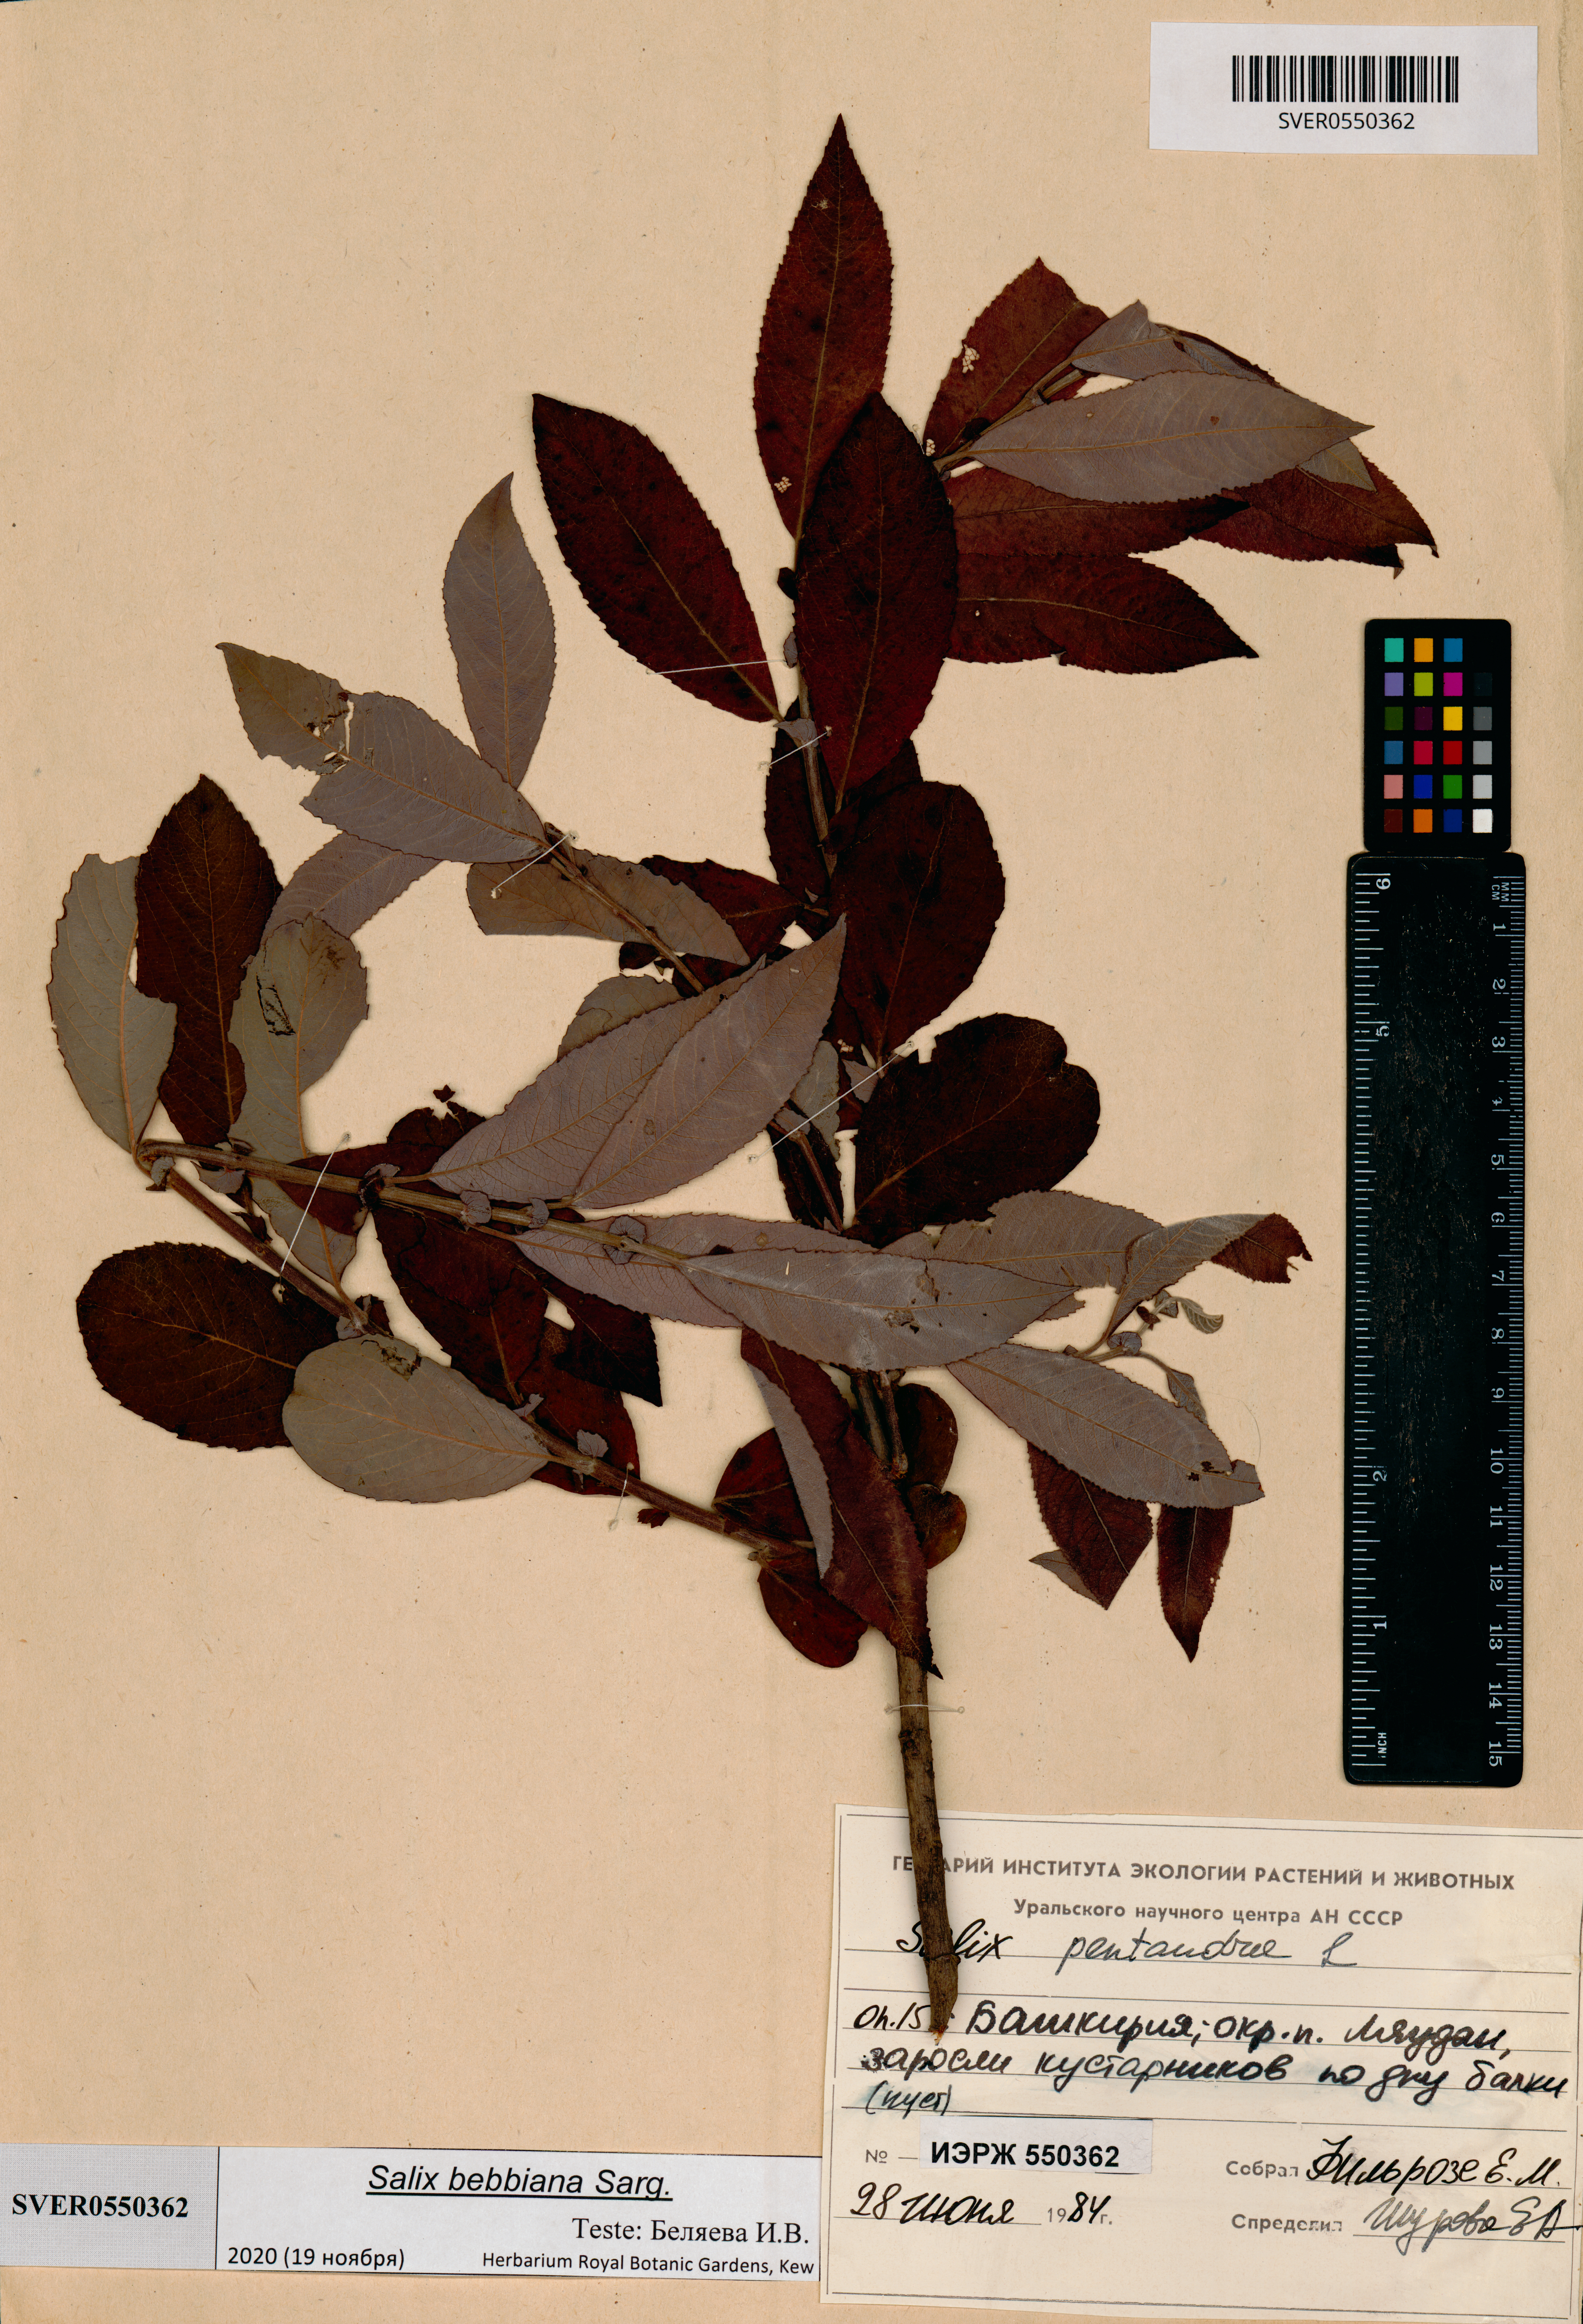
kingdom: Plantae
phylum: Tracheophyta
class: Magnoliopsida
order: Malpighiales
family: Salicaceae
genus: Salix
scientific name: Salix bebbiana
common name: Bebb's willow
